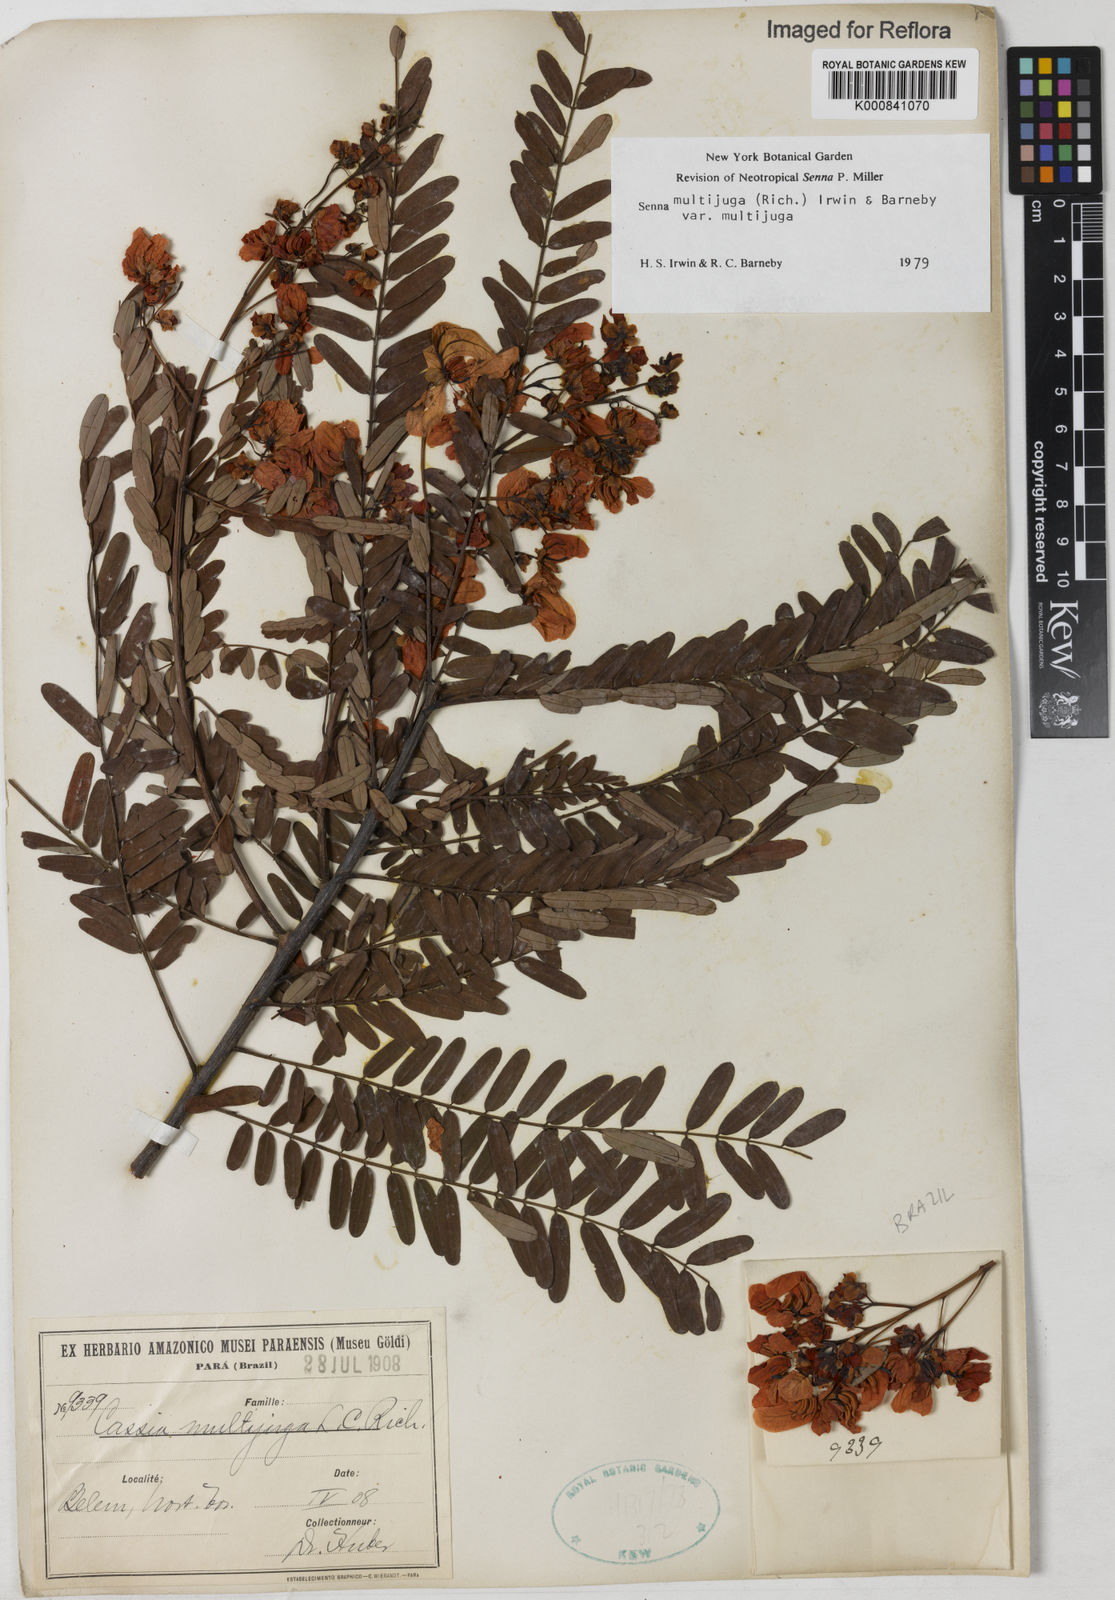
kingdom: Plantae
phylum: Tracheophyta
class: Magnoliopsida
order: Fabales
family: Fabaceae
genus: Senna
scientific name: Senna multijuga
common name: False sicklepod
